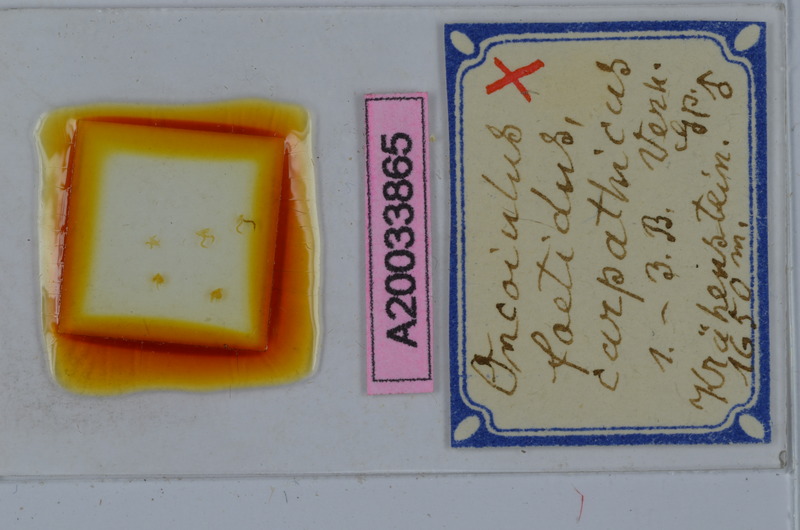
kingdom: Animalia
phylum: Arthropoda
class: Diplopoda
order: Julida
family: Julidae
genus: Unciger
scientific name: Unciger foetidus
